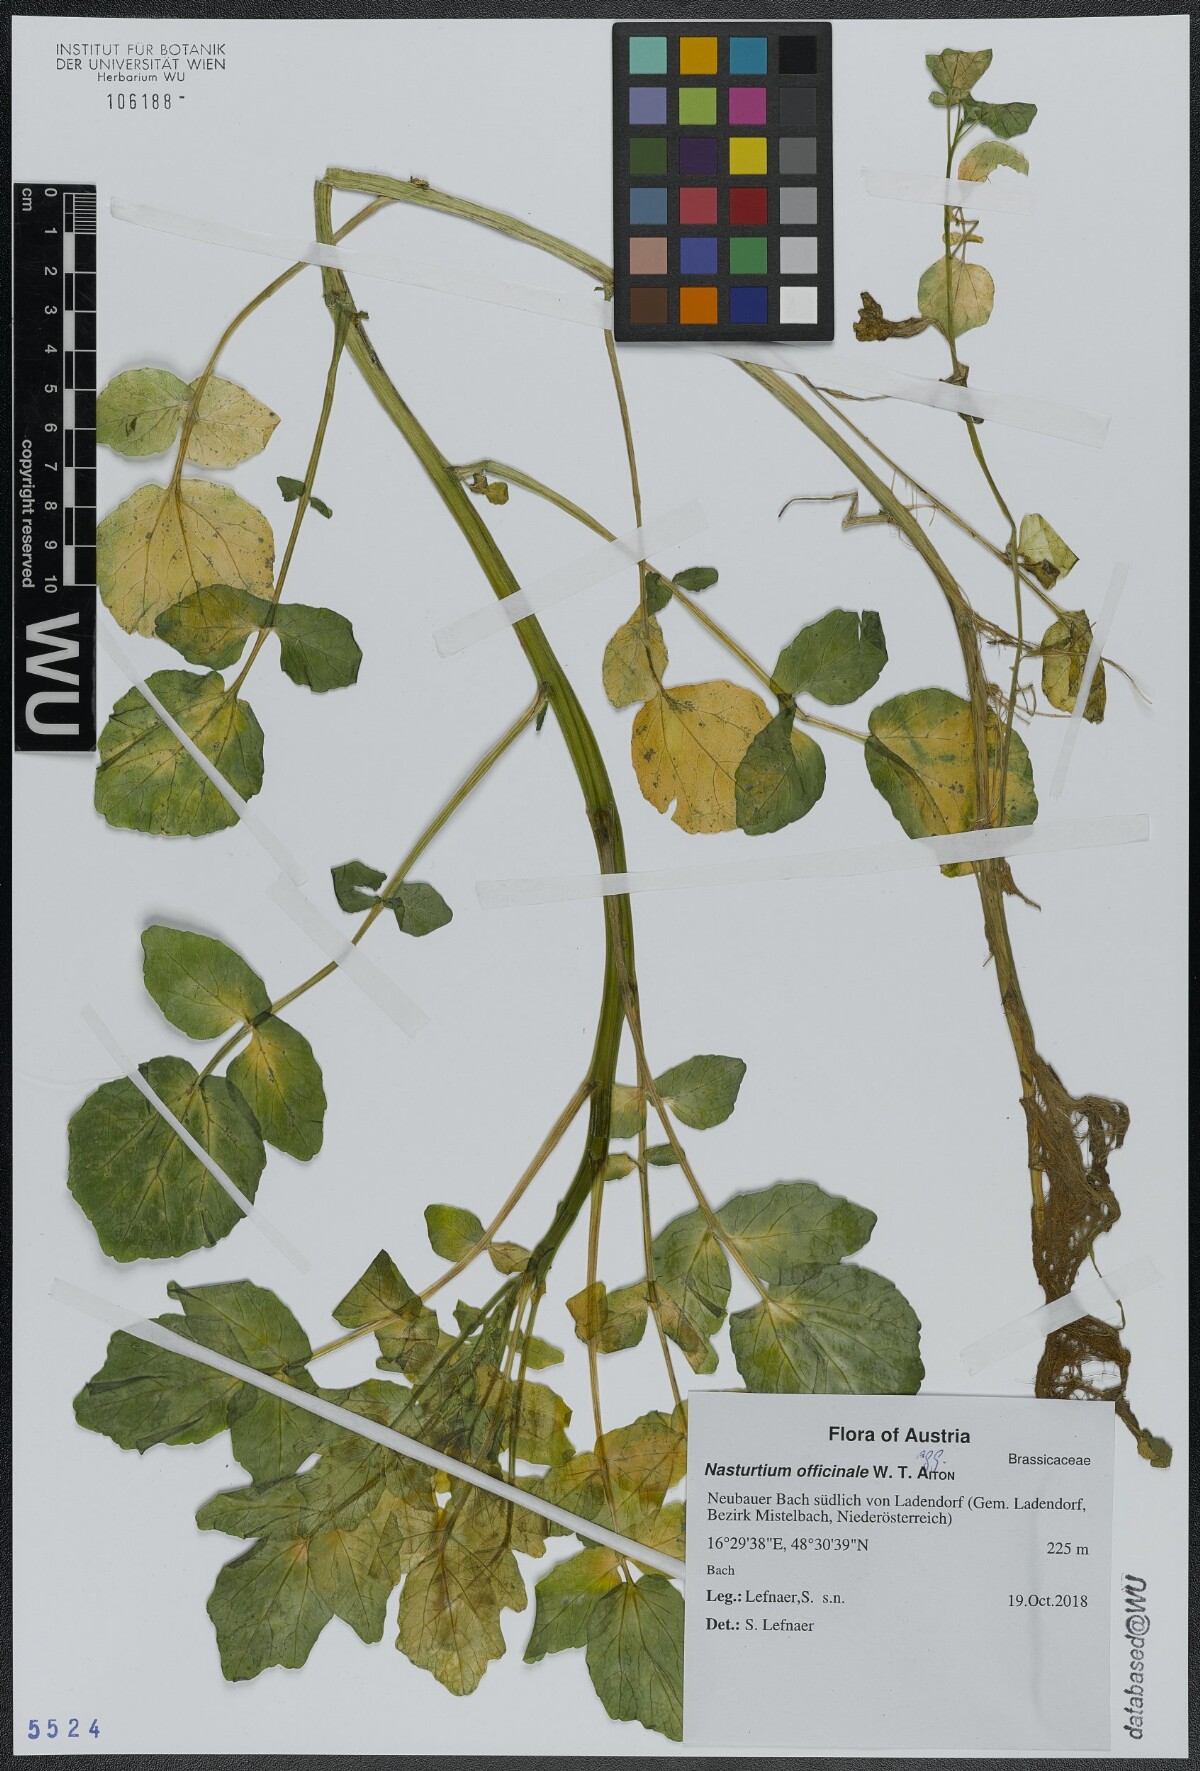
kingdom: Plantae
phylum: Tracheophyta
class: Magnoliopsida
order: Brassicales
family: Brassicaceae
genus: Nasturtium
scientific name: Nasturtium officinale
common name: Watercress
